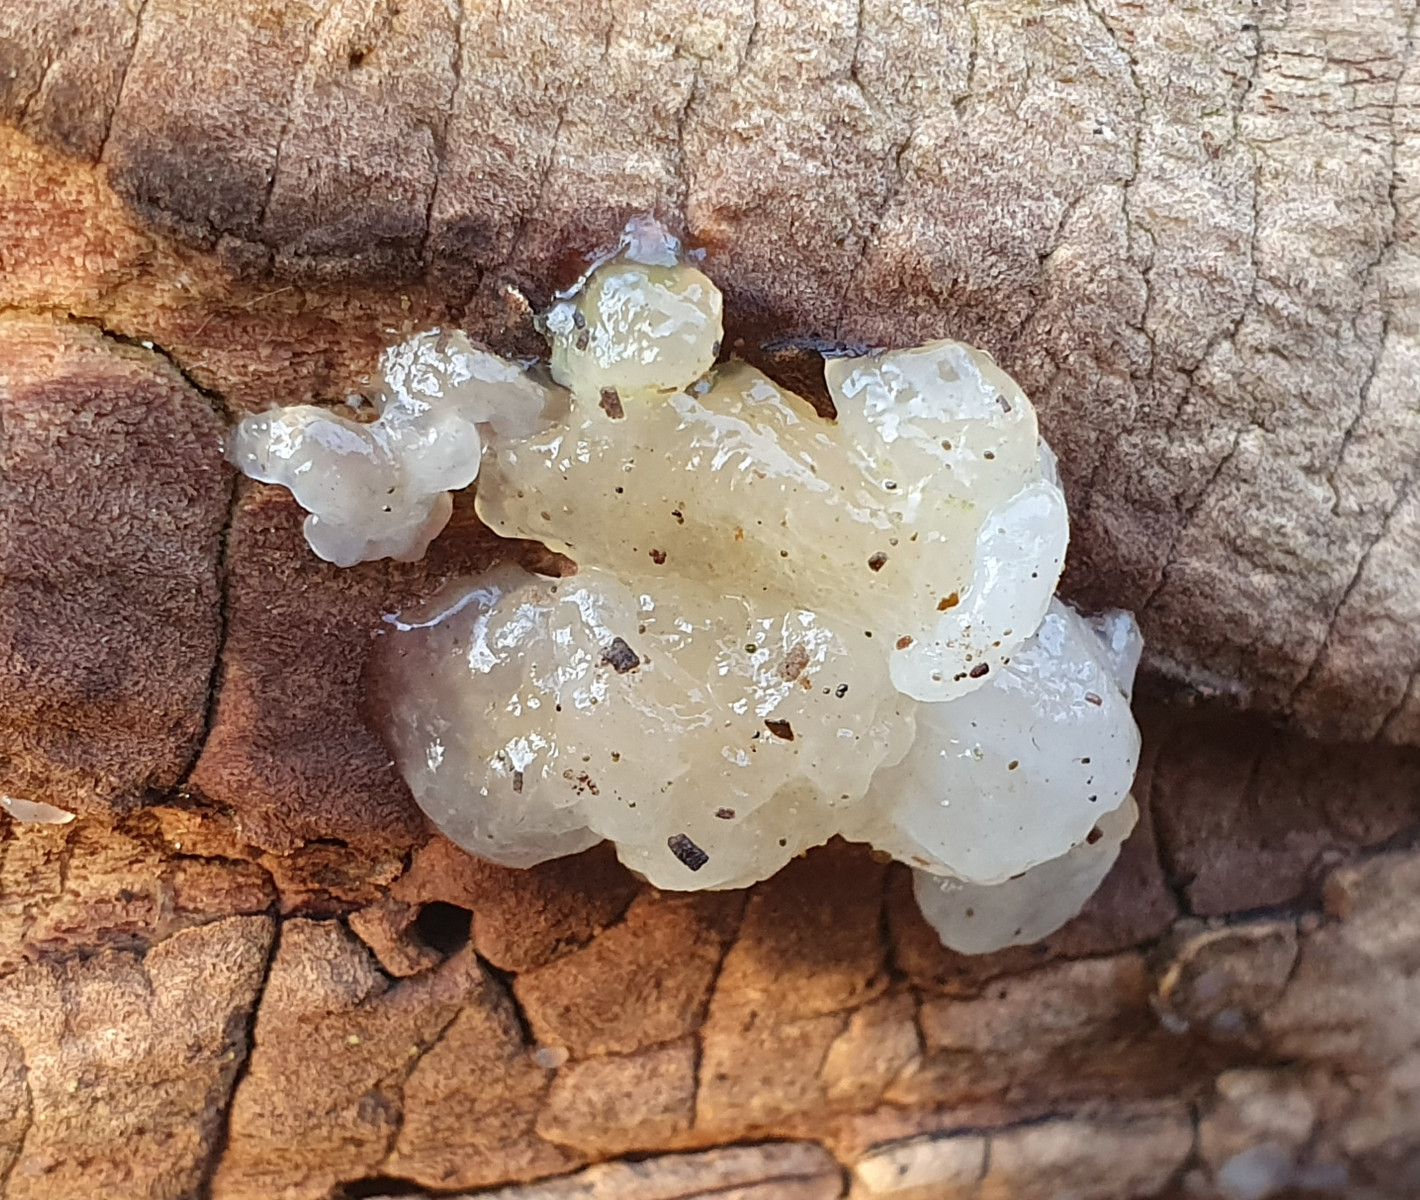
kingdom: Fungi
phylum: Basidiomycota
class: Agaricomycetes
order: Auriculariales
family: Hyaloriaceae
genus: Myxarium
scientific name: Myxarium nucleatum
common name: klar bævretop
